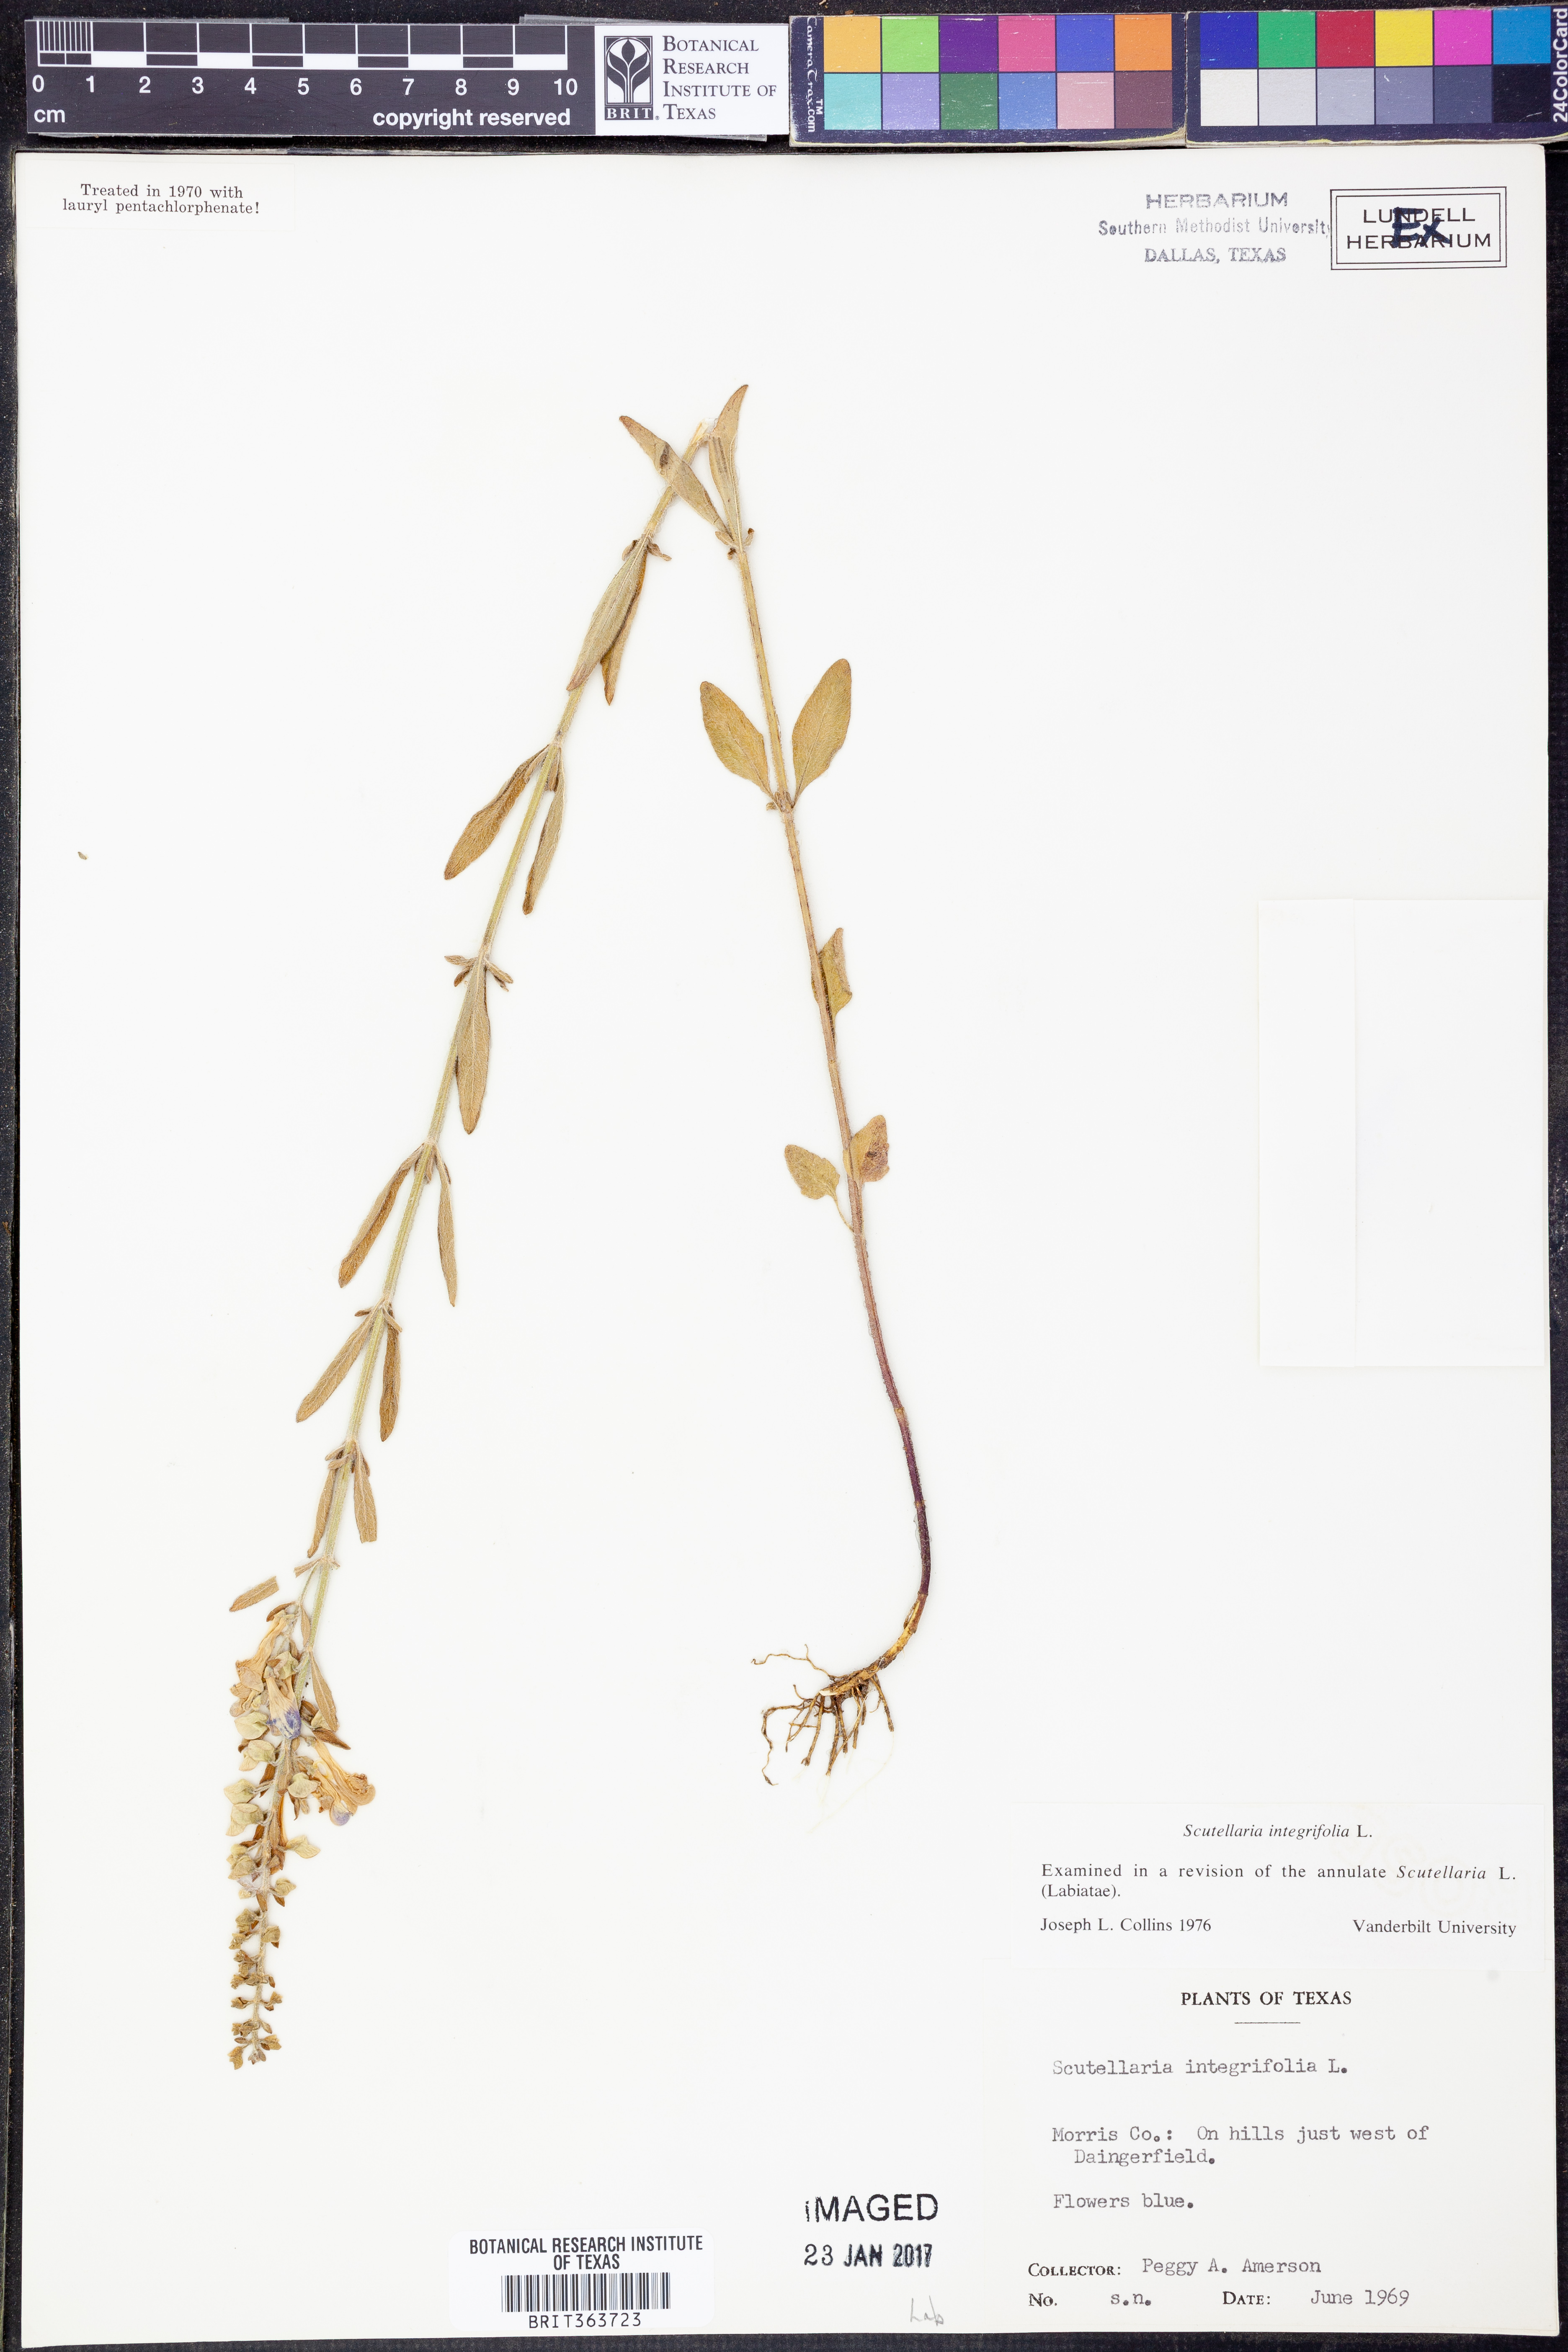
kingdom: Plantae
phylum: Tracheophyta
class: Magnoliopsida
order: Lamiales
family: Lamiaceae
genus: Scutellaria
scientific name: Scutellaria integrifolia
